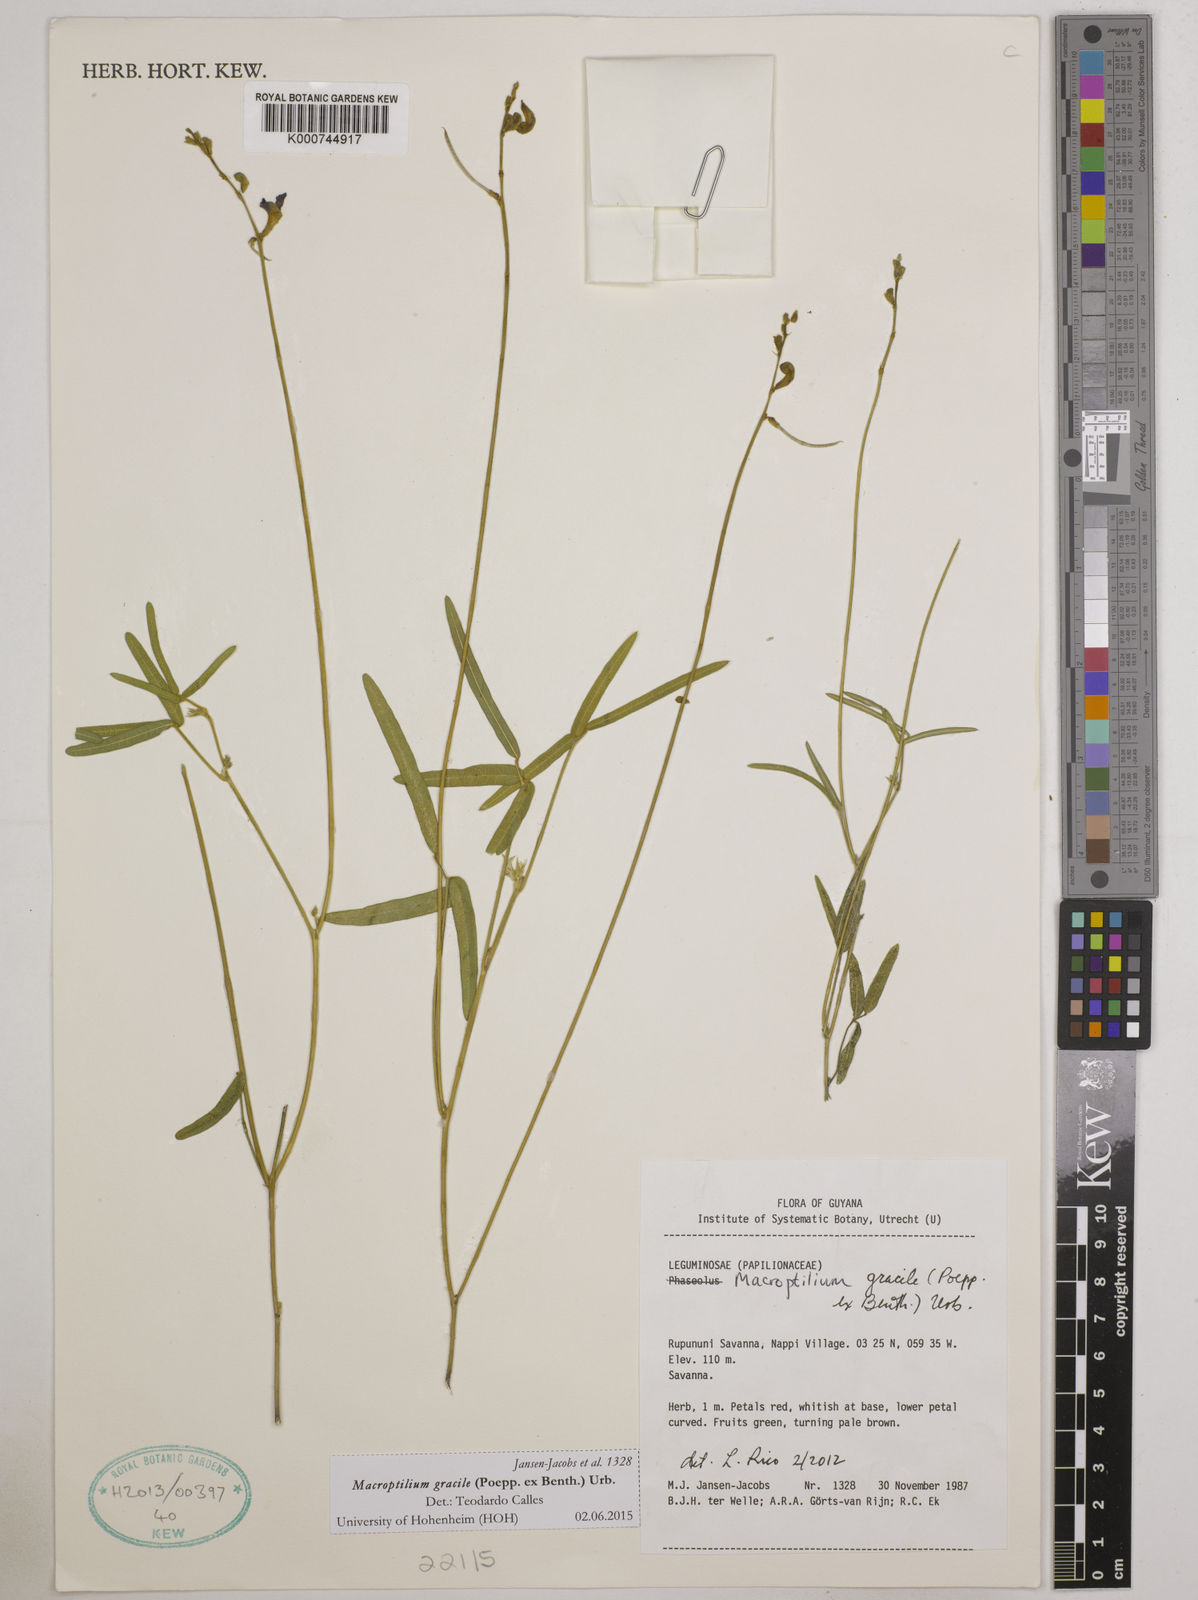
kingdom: Plantae
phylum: Tracheophyta
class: Magnoliopsida
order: Fabales
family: Fabaceae
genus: Macroptilium
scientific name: Macroptilium gracile
